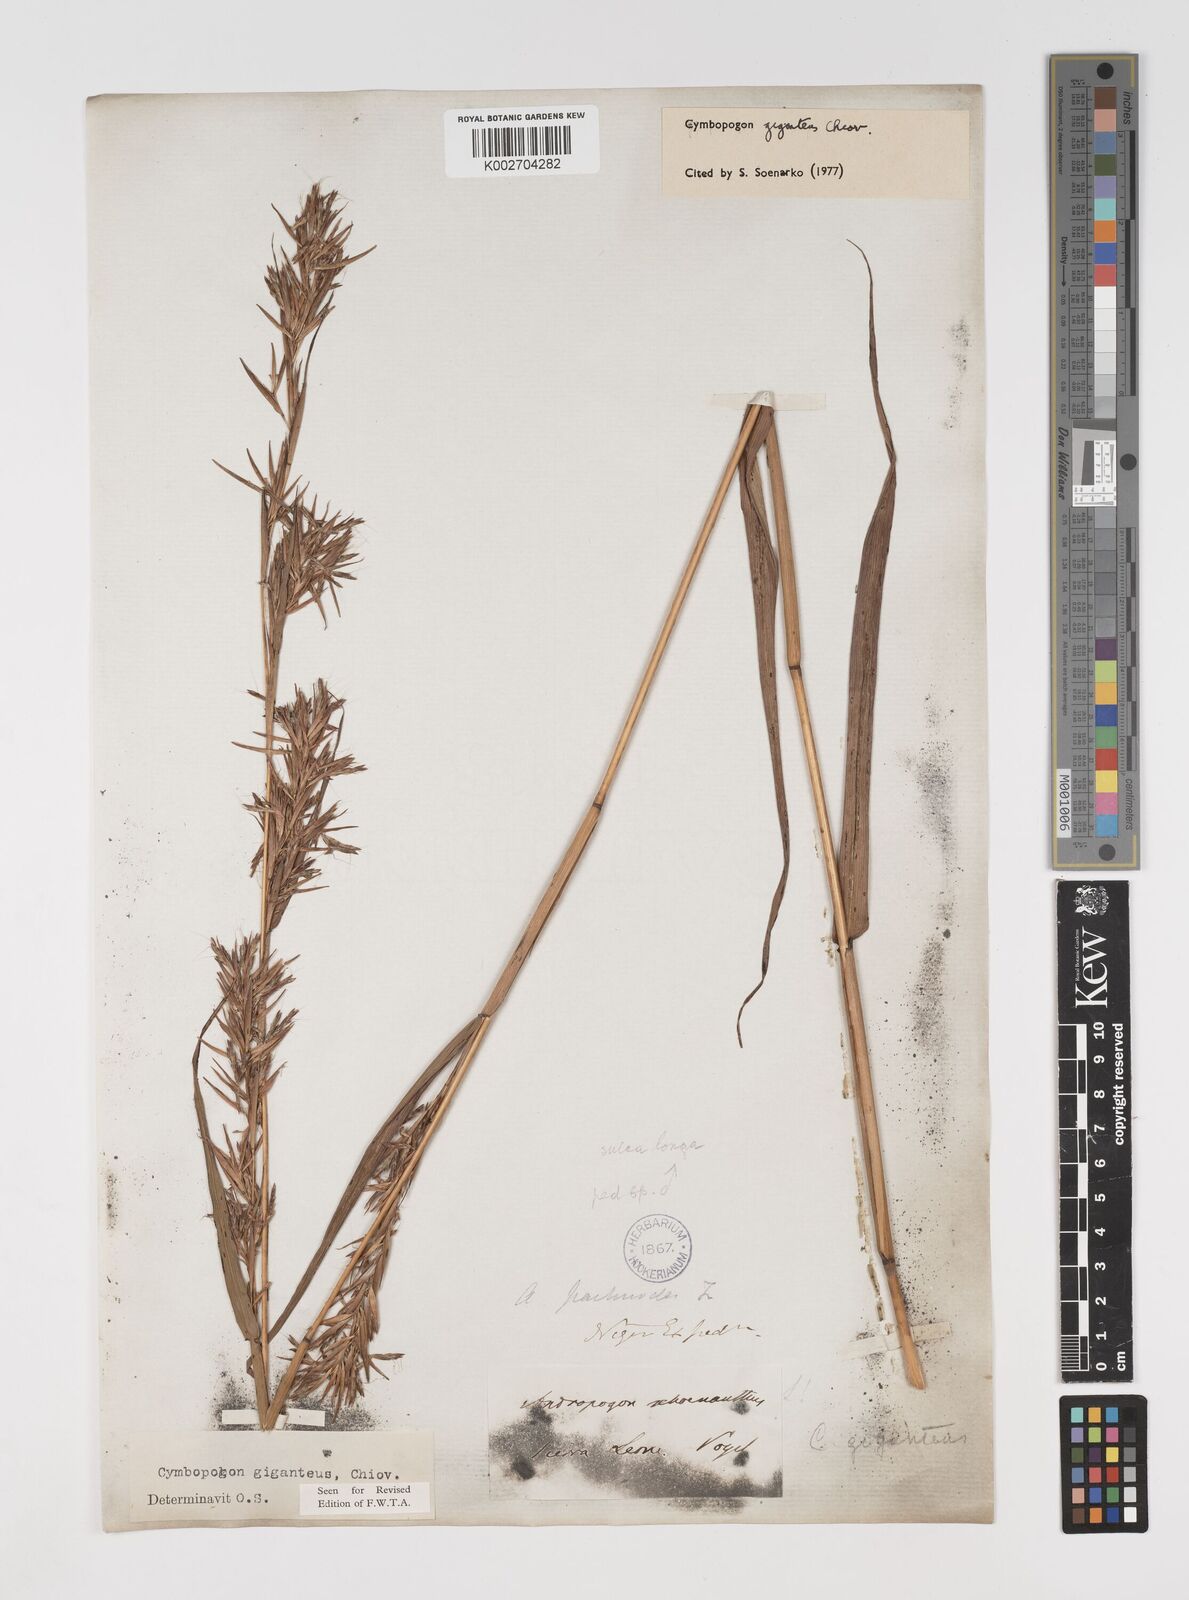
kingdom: Plantae
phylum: Tracheophyta
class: Liliopsida
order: Poales
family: Poaceae
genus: Cymbopogon
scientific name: Cymbopogon giganteus
